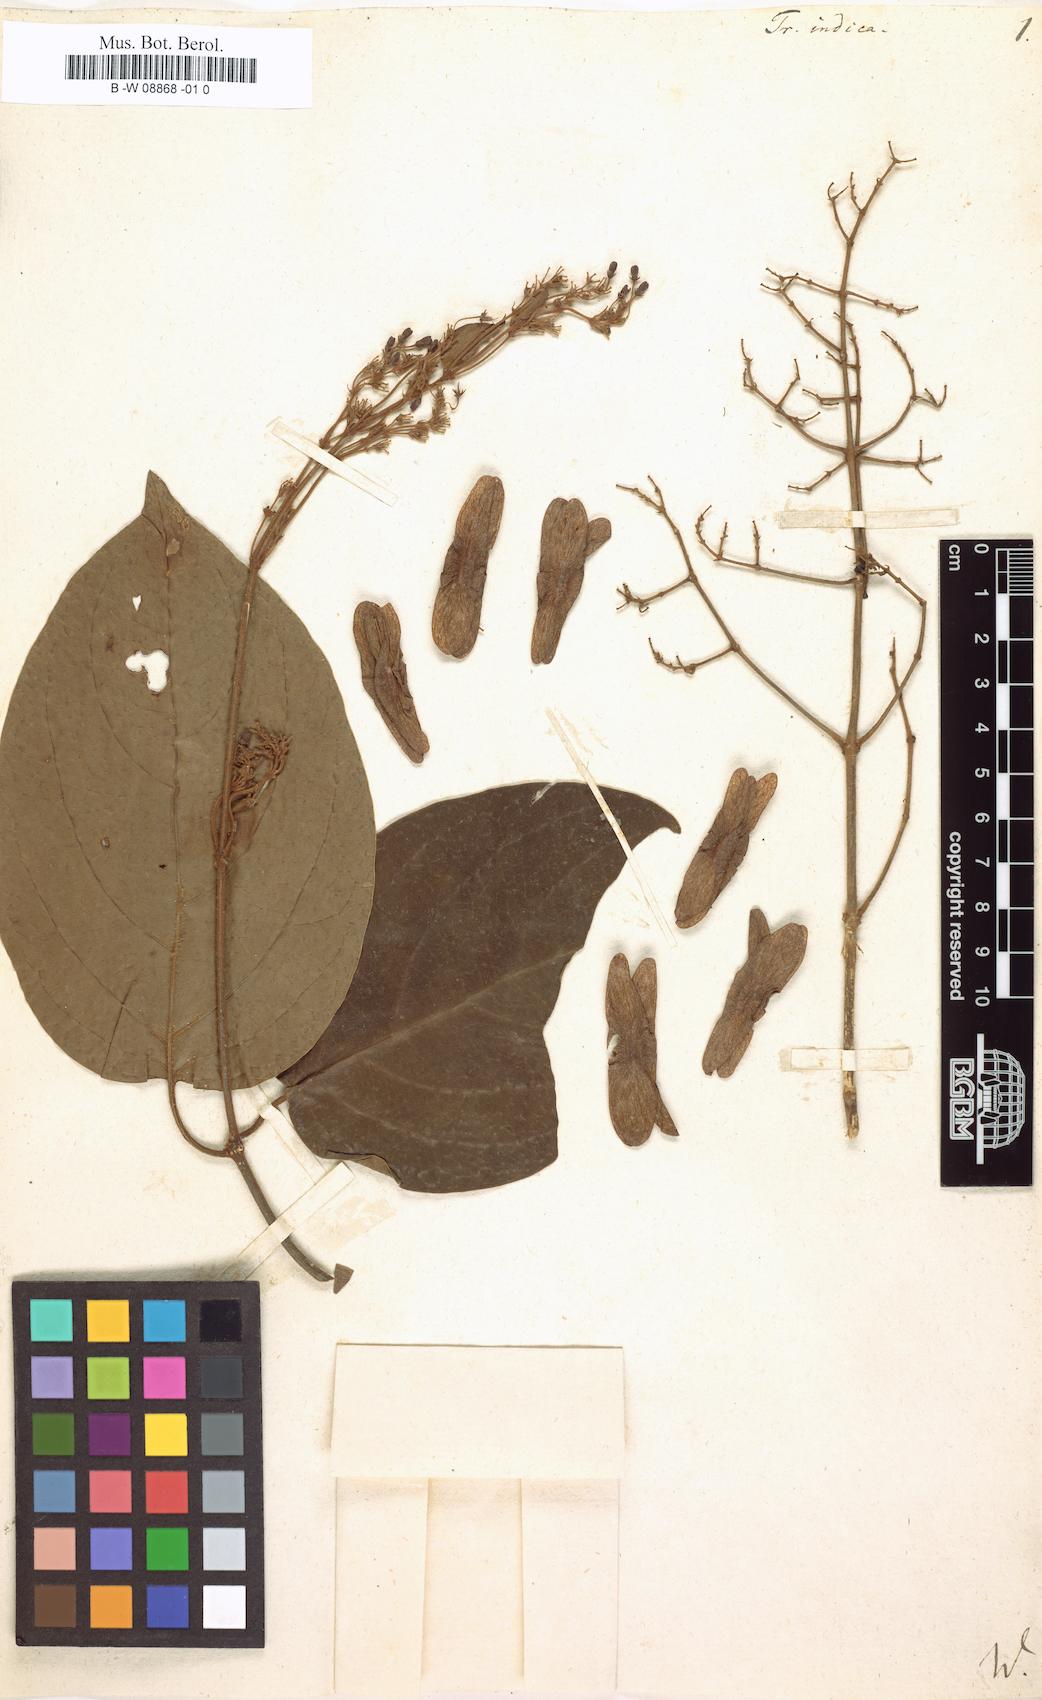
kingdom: Plantae
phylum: Tracheophyta
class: Magnoliopsida
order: Malpighiales
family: Malpighiaceae
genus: Aspidopterys
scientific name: Aspidopterys indica
